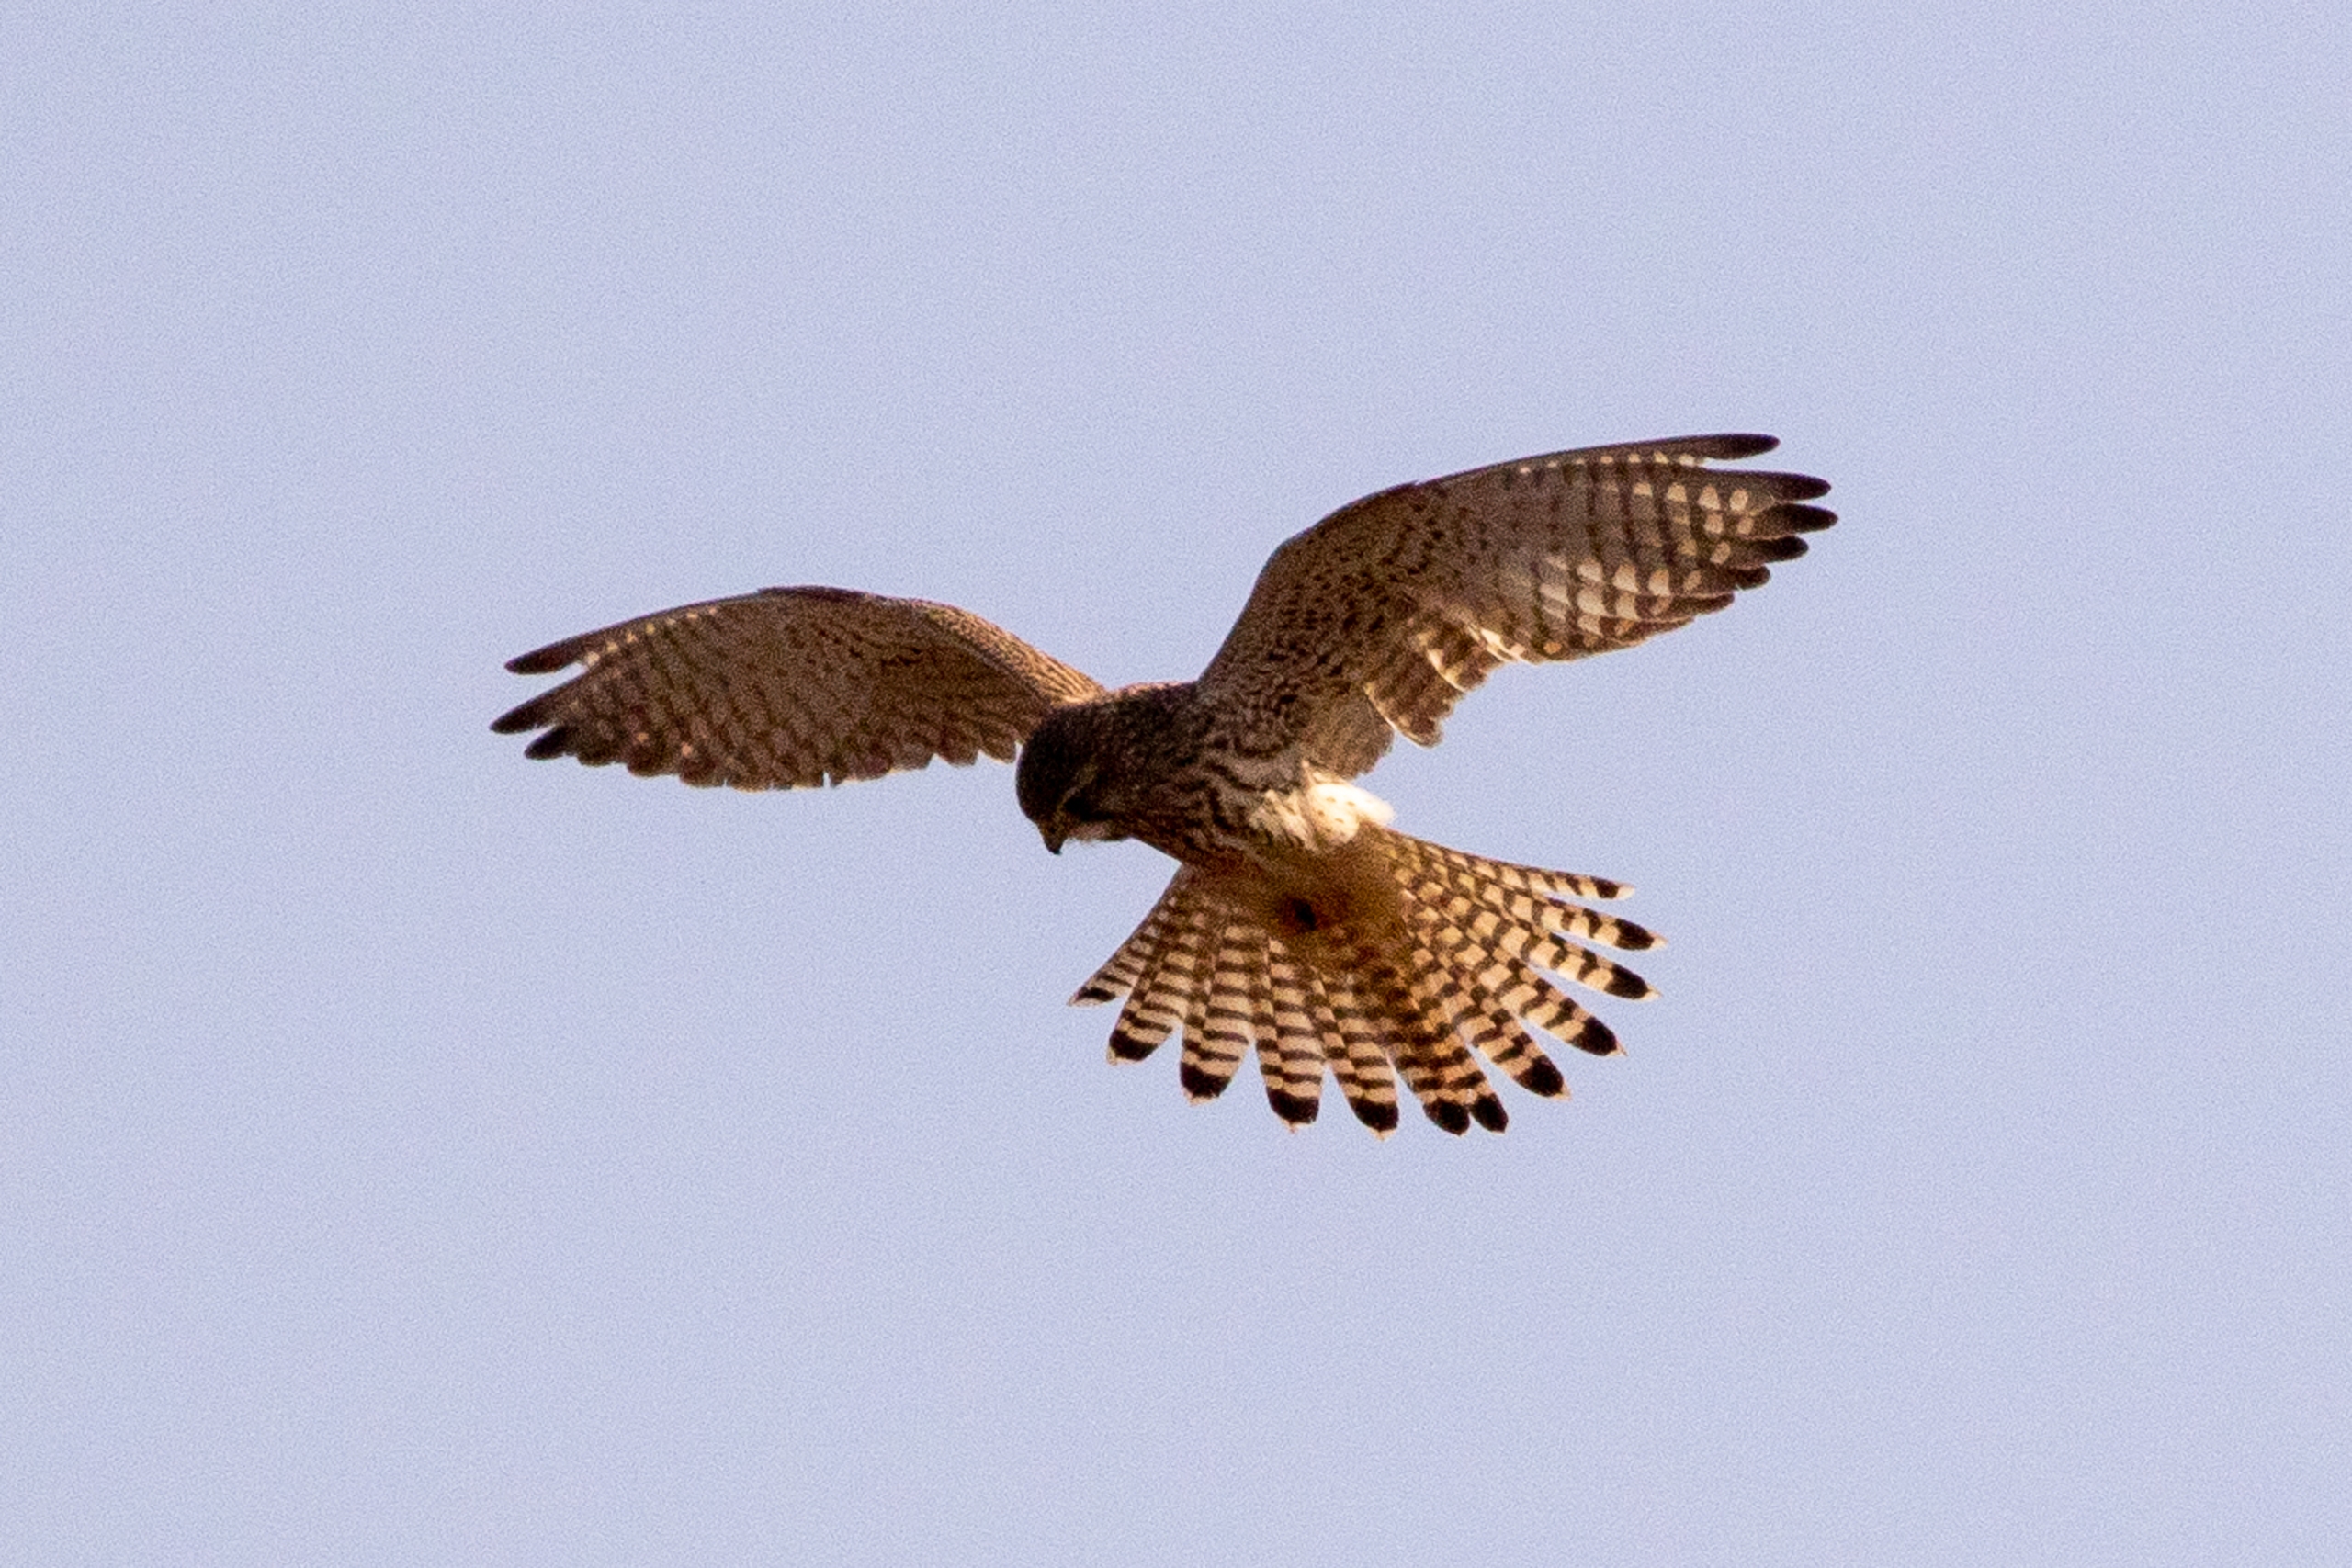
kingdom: Animalia
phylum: Chordata
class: Aves
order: Falconiformes
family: Falconidae
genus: Falco
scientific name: Falco tinnunculus
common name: Tårnfalk
